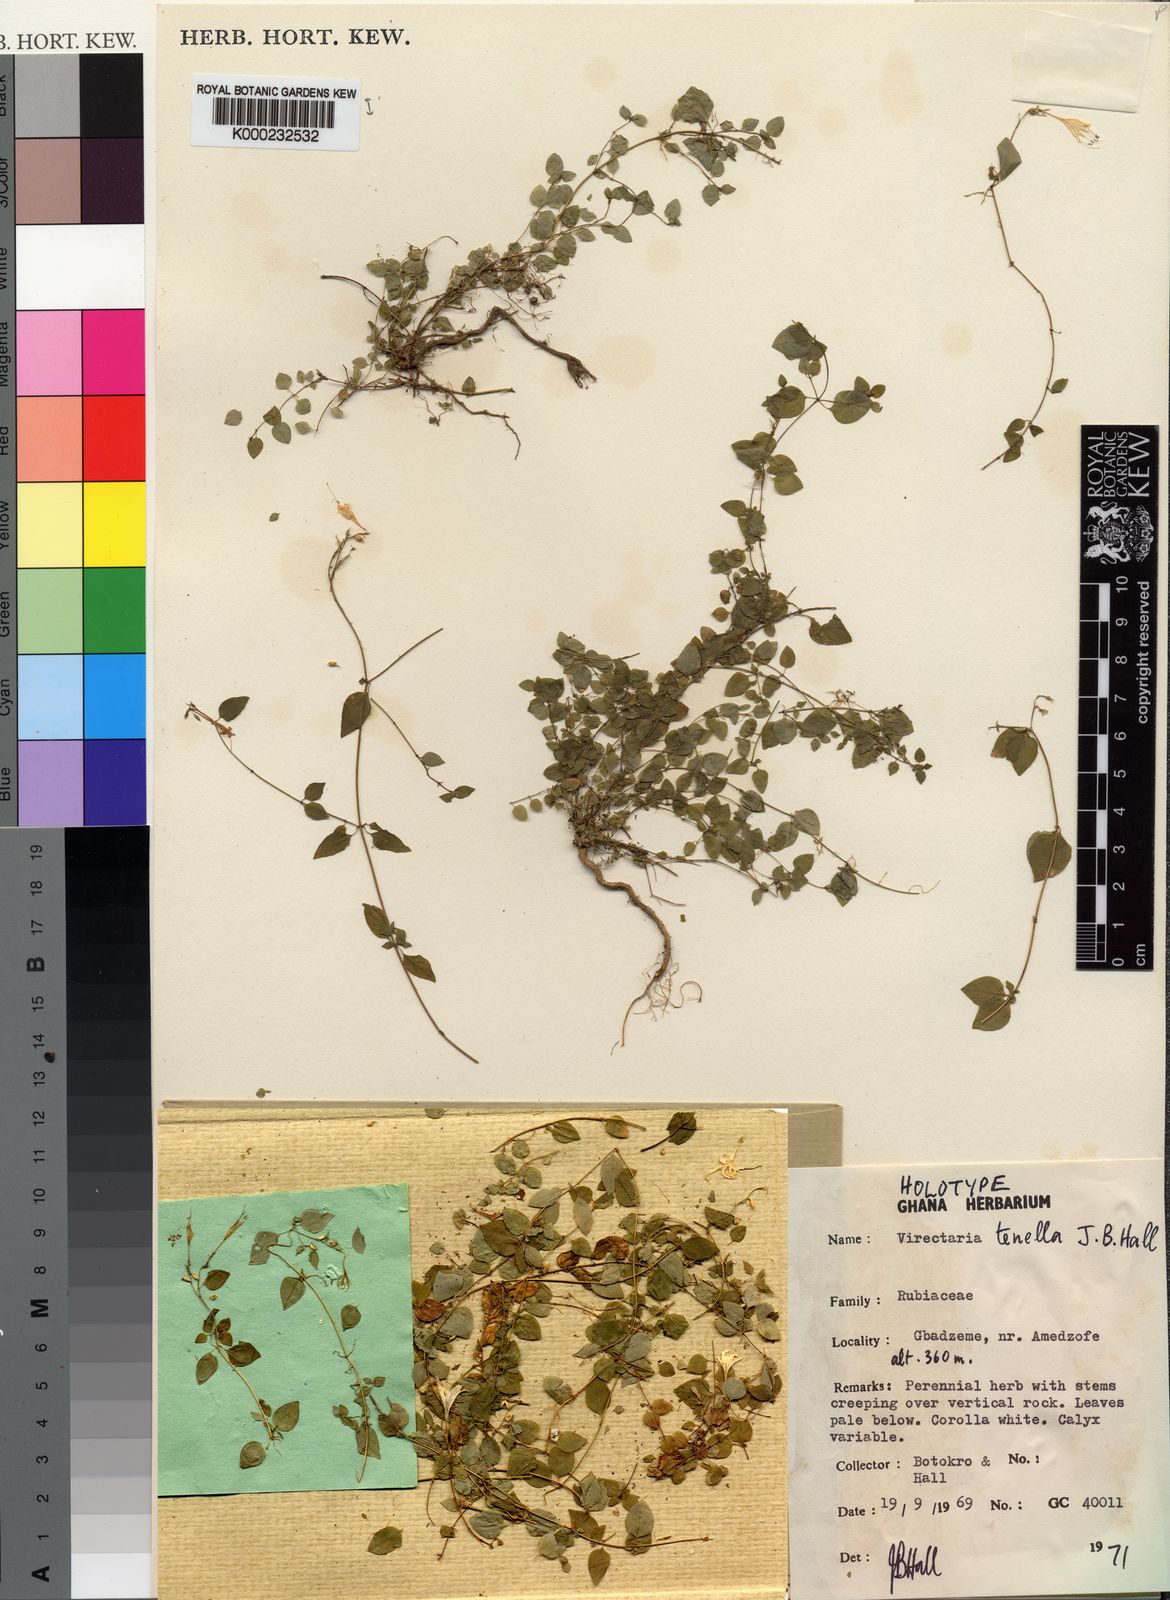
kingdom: Plantae
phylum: Tracheophyta
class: Magnoliopsida
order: Gentianales
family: Rubiaceae
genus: Virectaria
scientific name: Virectaria tenella
